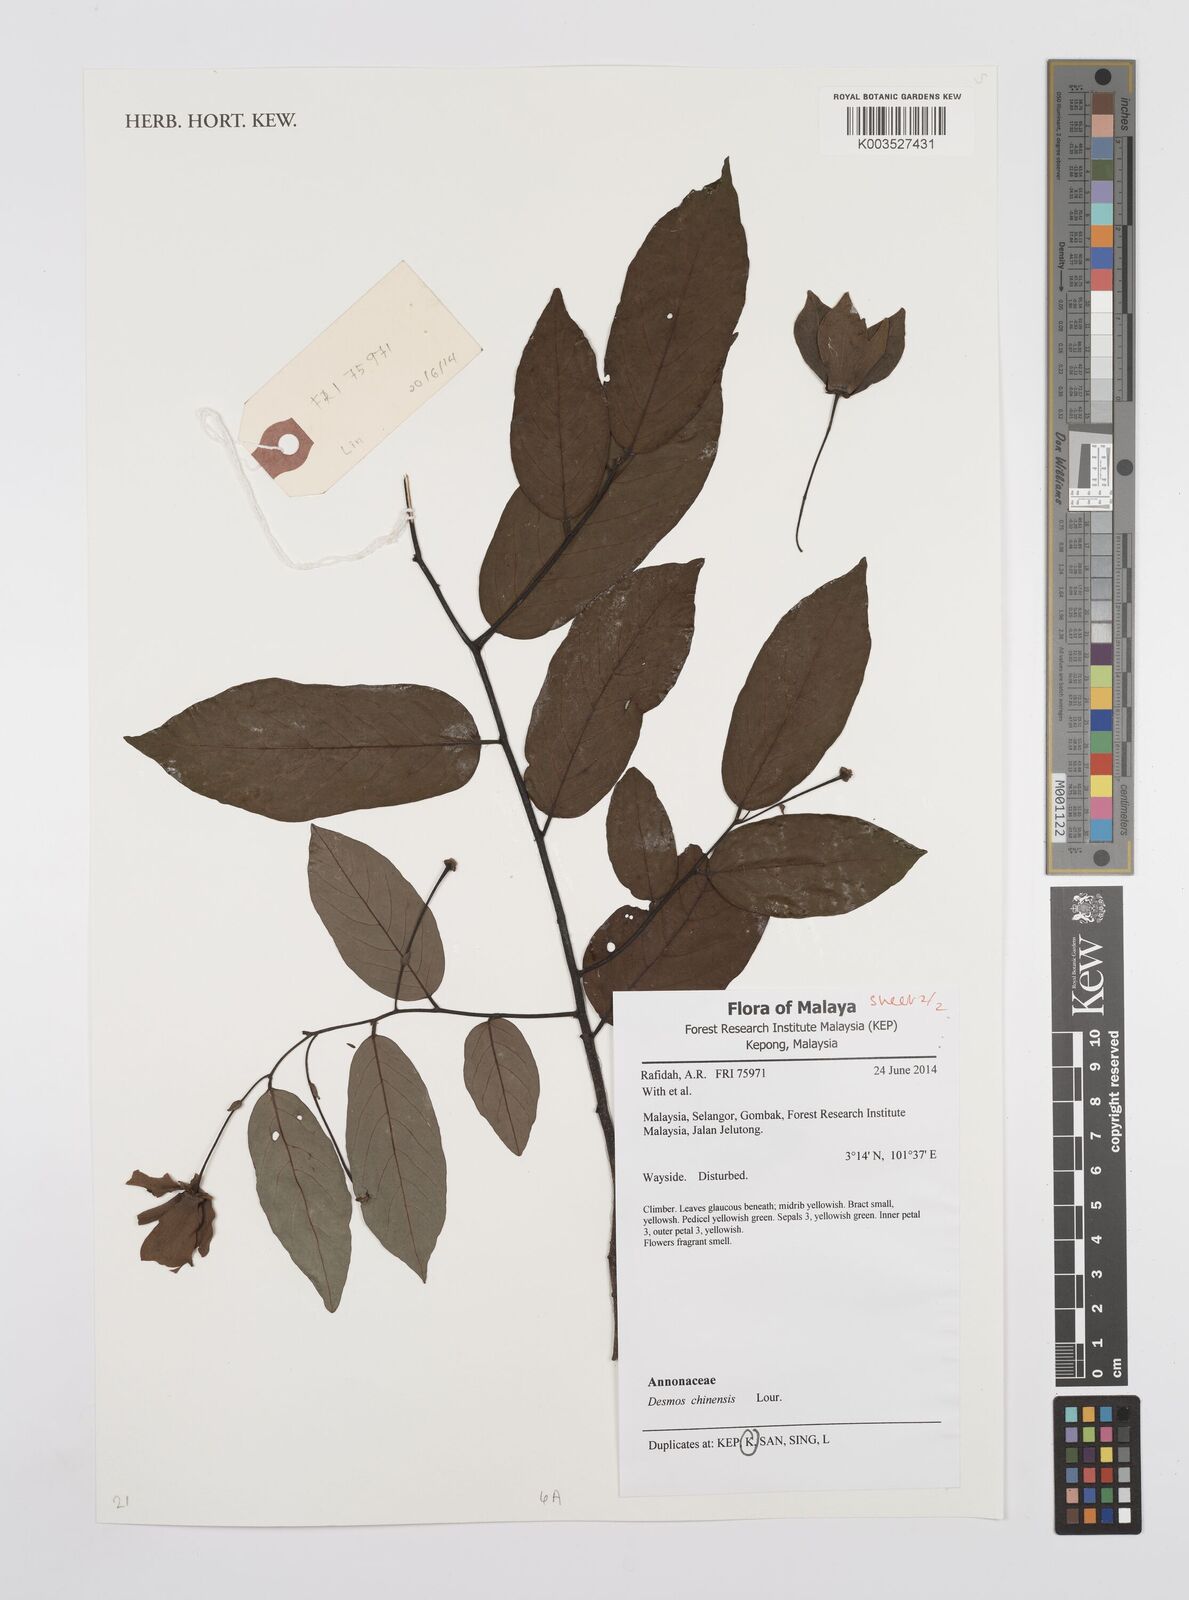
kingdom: Plantae
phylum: Tracheophyta
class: Magnoliopsida
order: Magnoliales
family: Annonaceae
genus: Desmos
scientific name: Desmos chinensis
